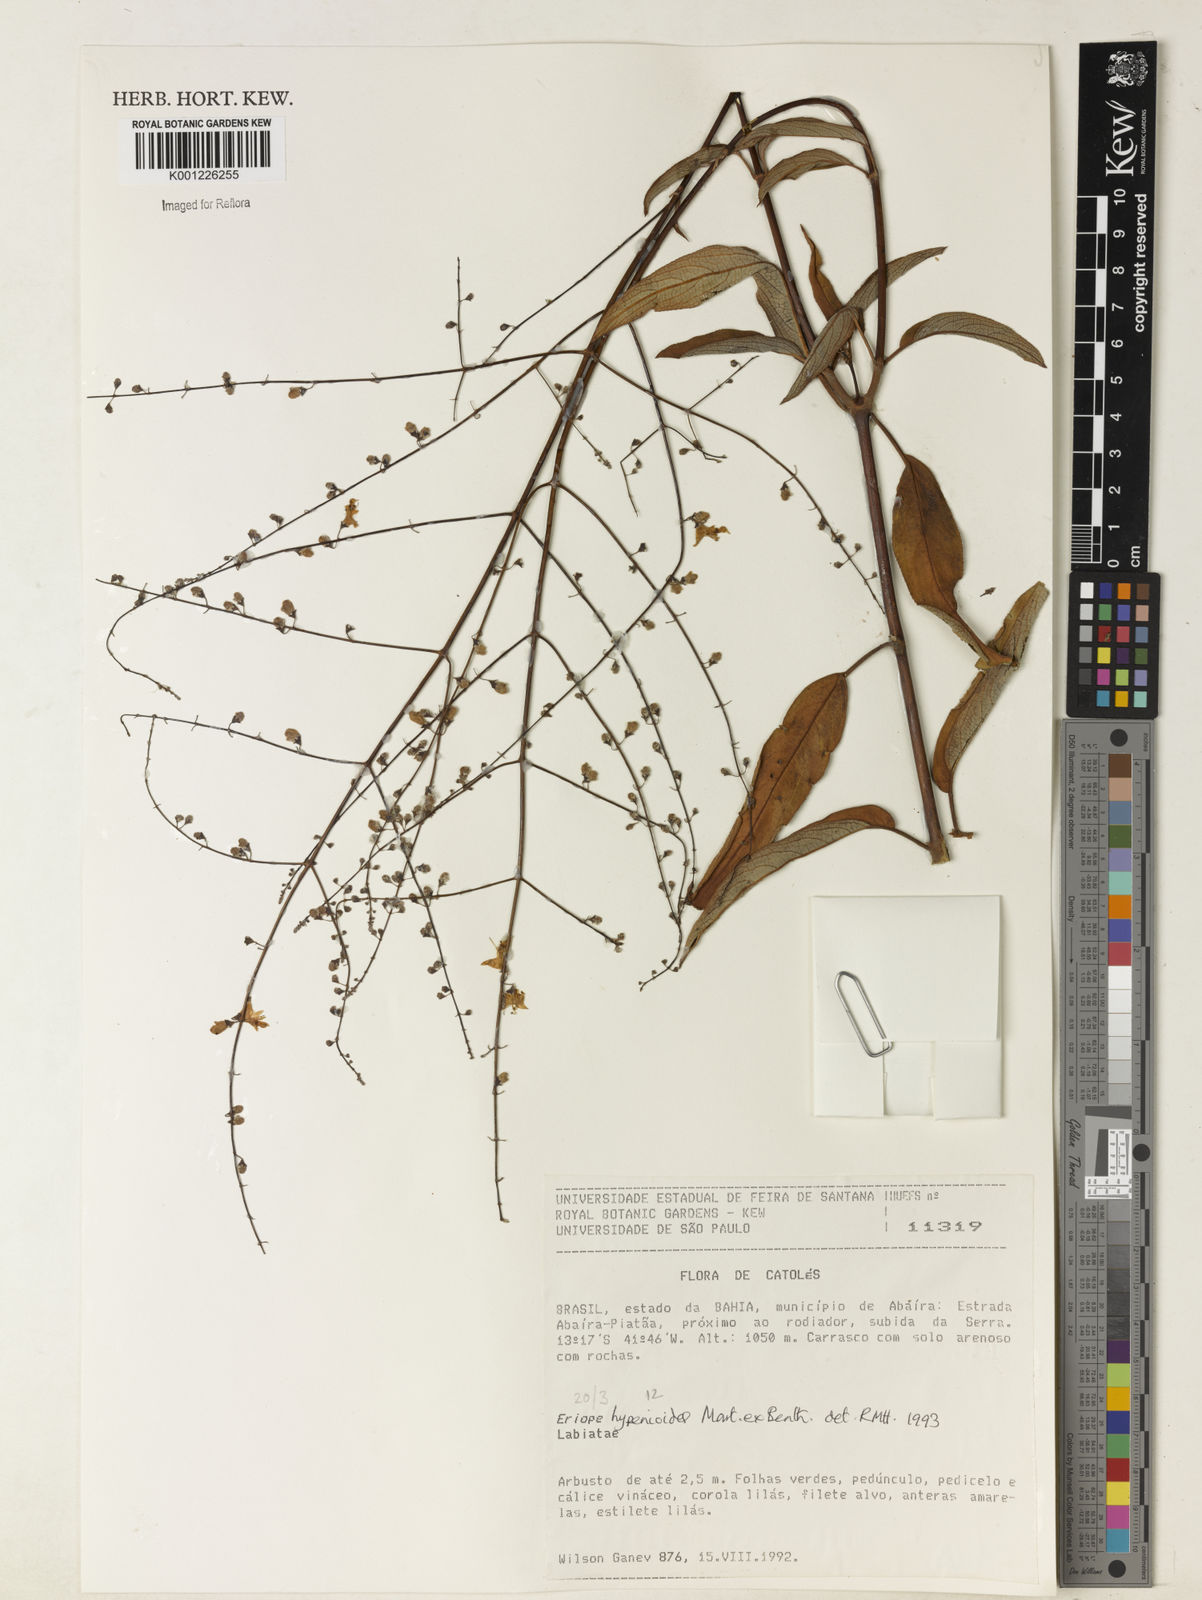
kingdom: Plantae
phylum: Tracheophyta
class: Magnoliopsida
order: Lamiales
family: Lamiaceae
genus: Eriope
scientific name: Eriope hypenioides
